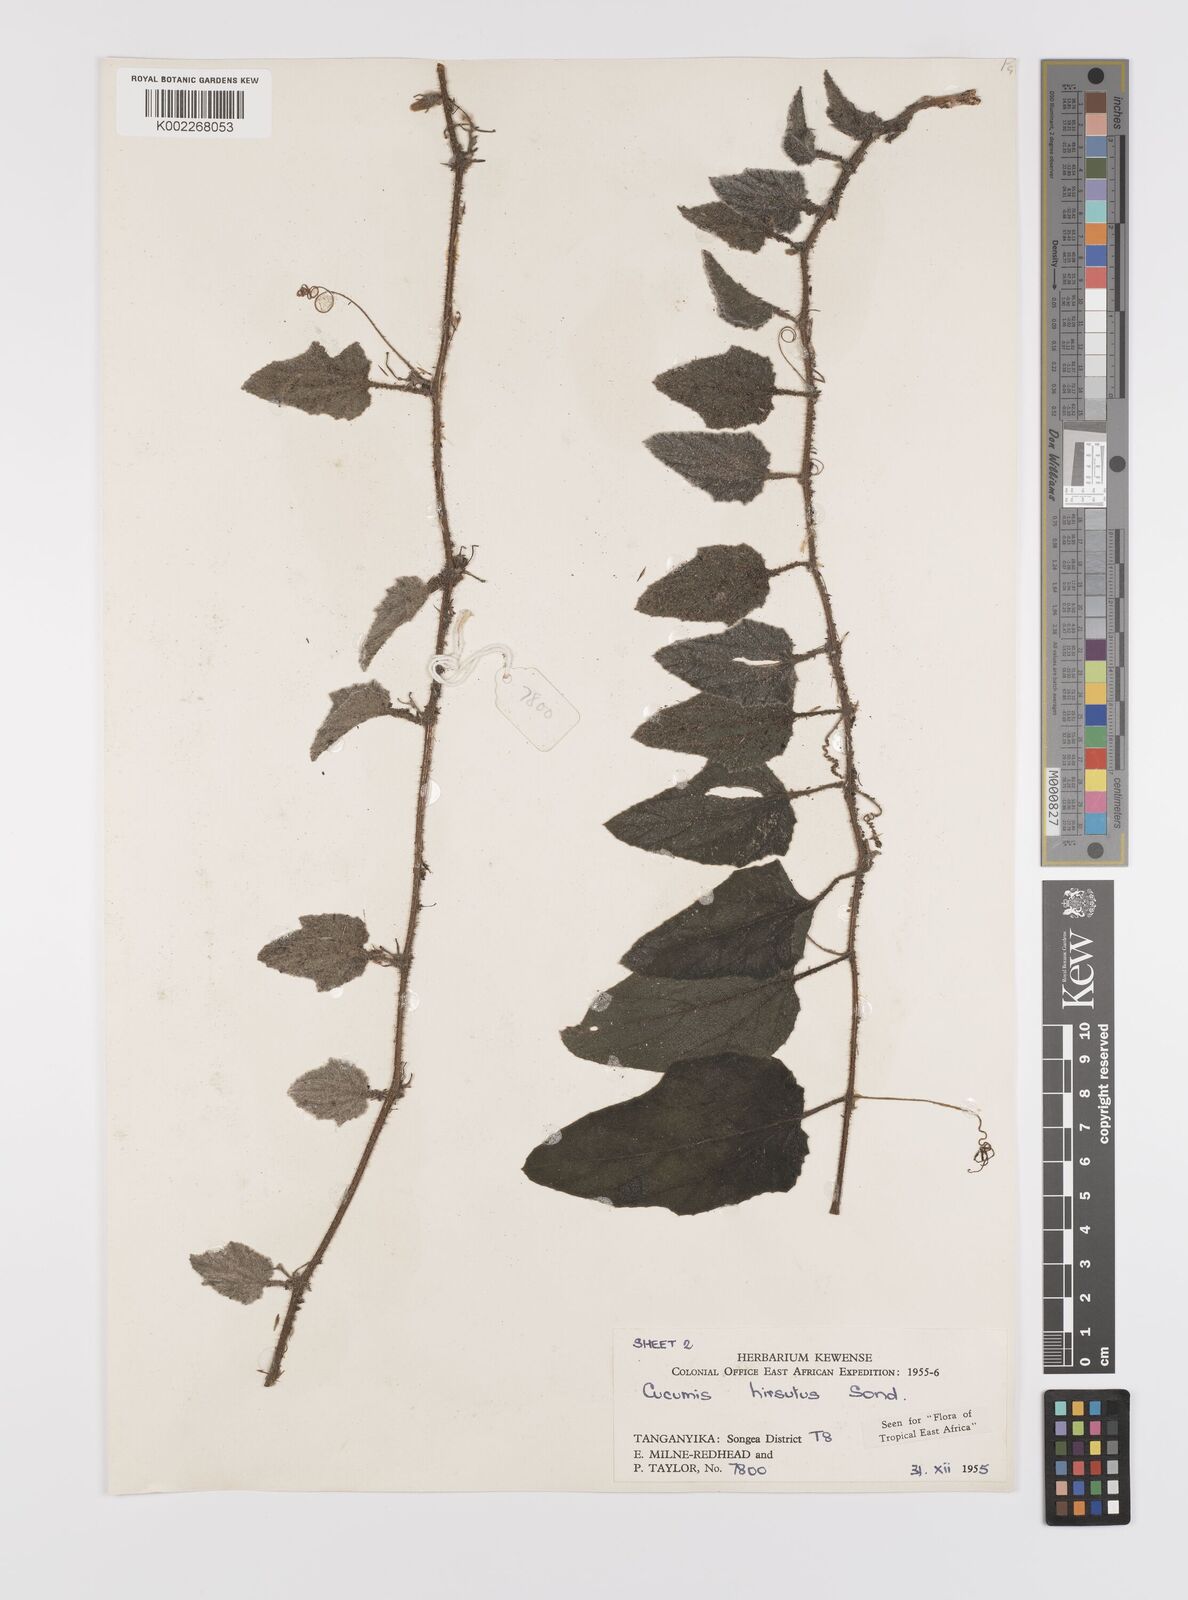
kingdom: Plantae
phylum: Tracheophyta
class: Magnoliopsida
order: Cucurbitales
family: Cucurbitaceae
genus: Cucumis
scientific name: Cucumis hirsutus
